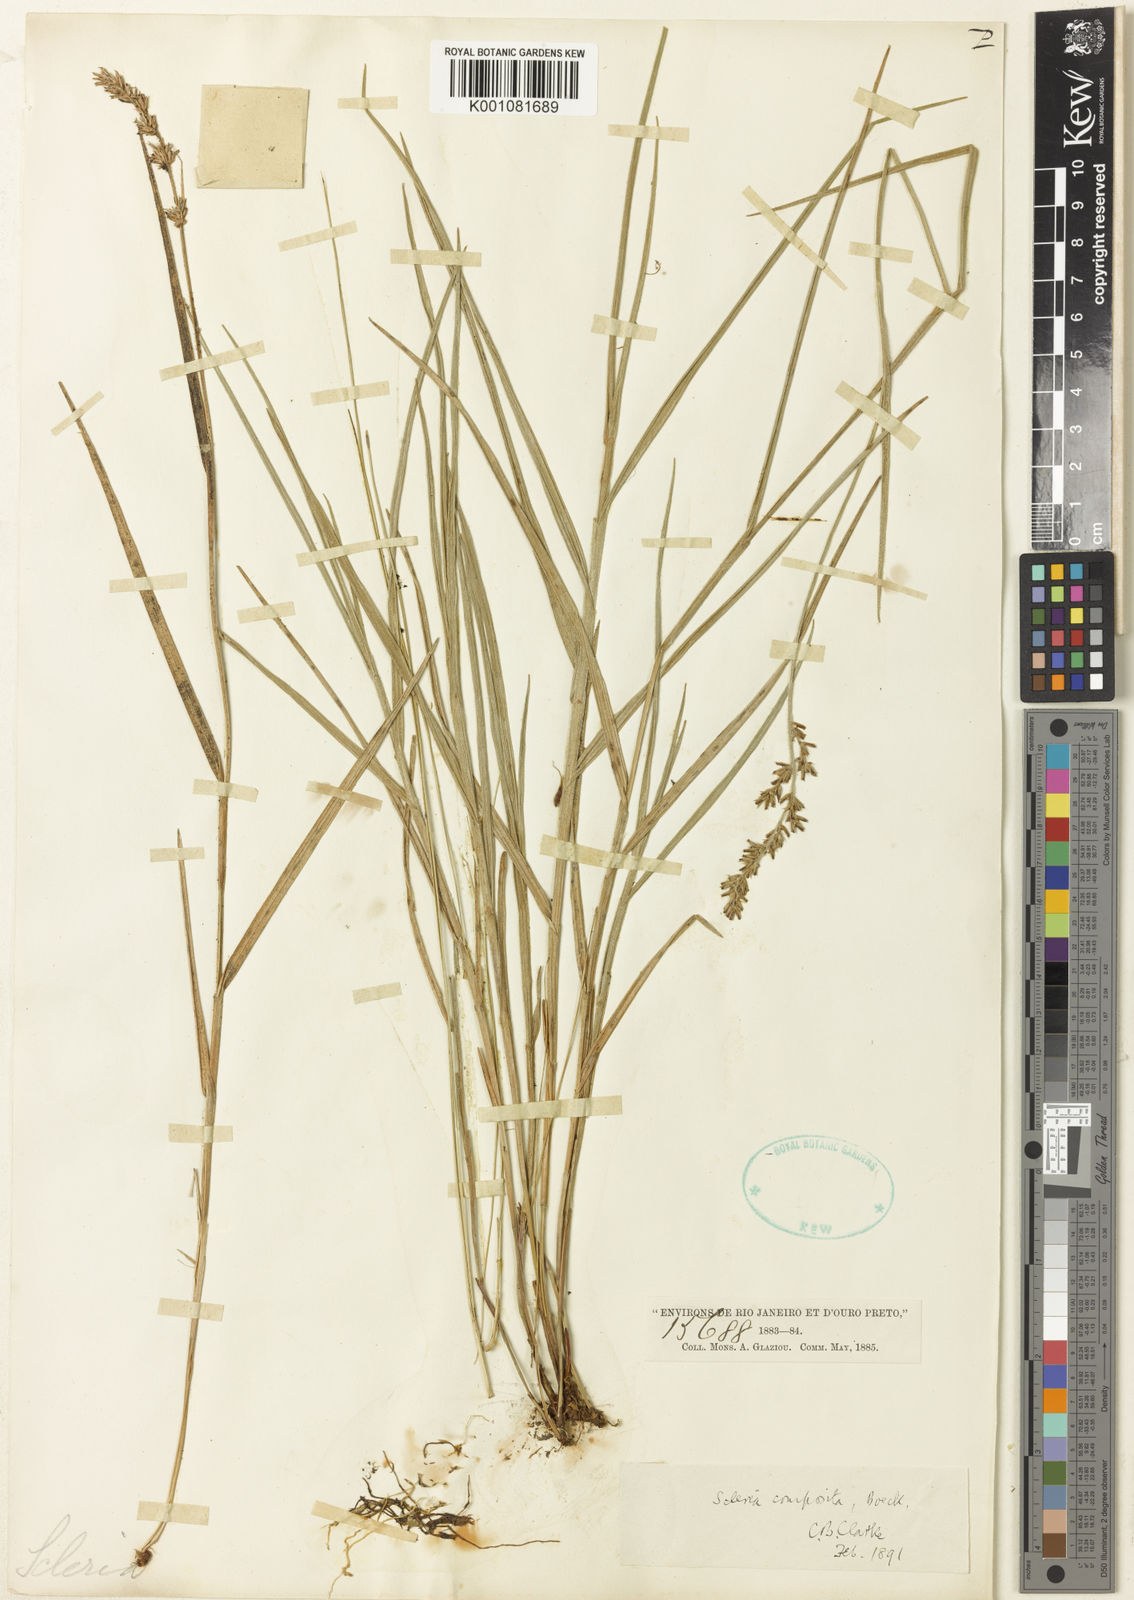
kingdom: Plantae
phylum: Tracheophyta
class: Liliopsida
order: Poales
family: Cyperaceae
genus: Scleria
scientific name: Scleria composita
